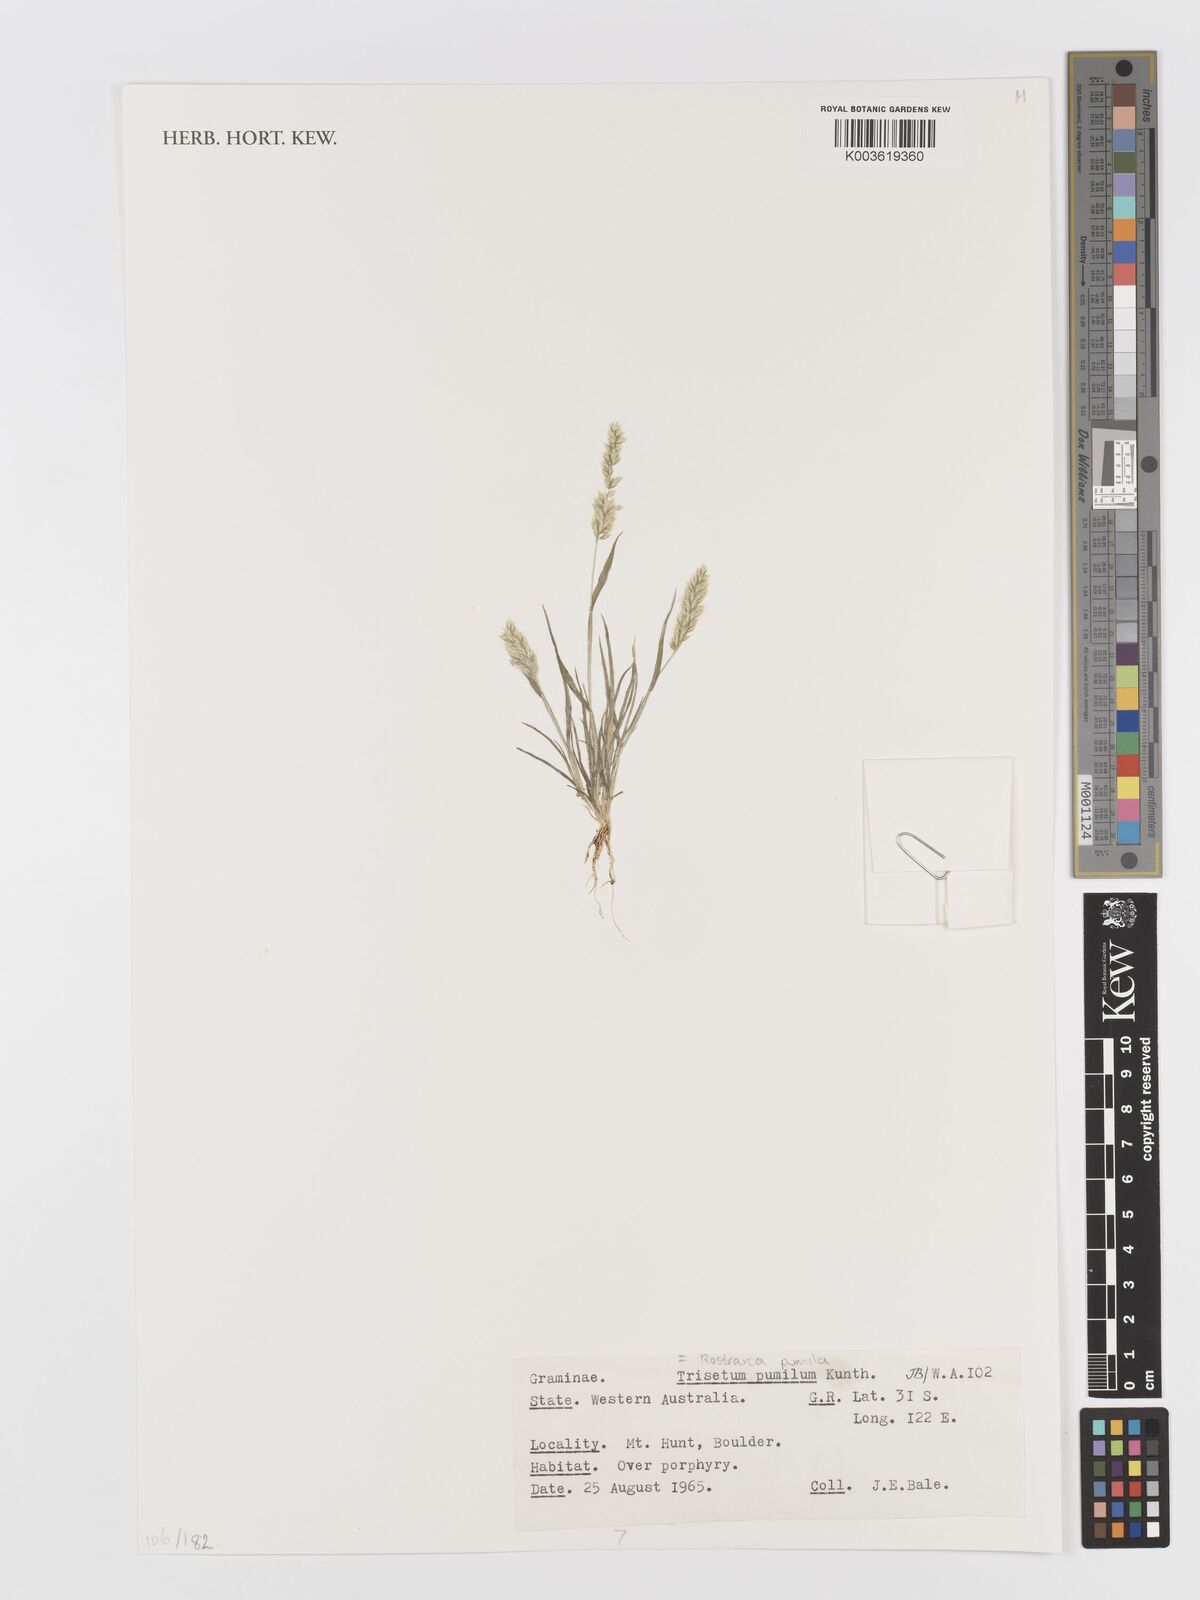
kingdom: Plantae
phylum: Tracheophyta
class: Liliopsida
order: Poales
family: Poaceae
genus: Rostraria
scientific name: Rostraria pumila
